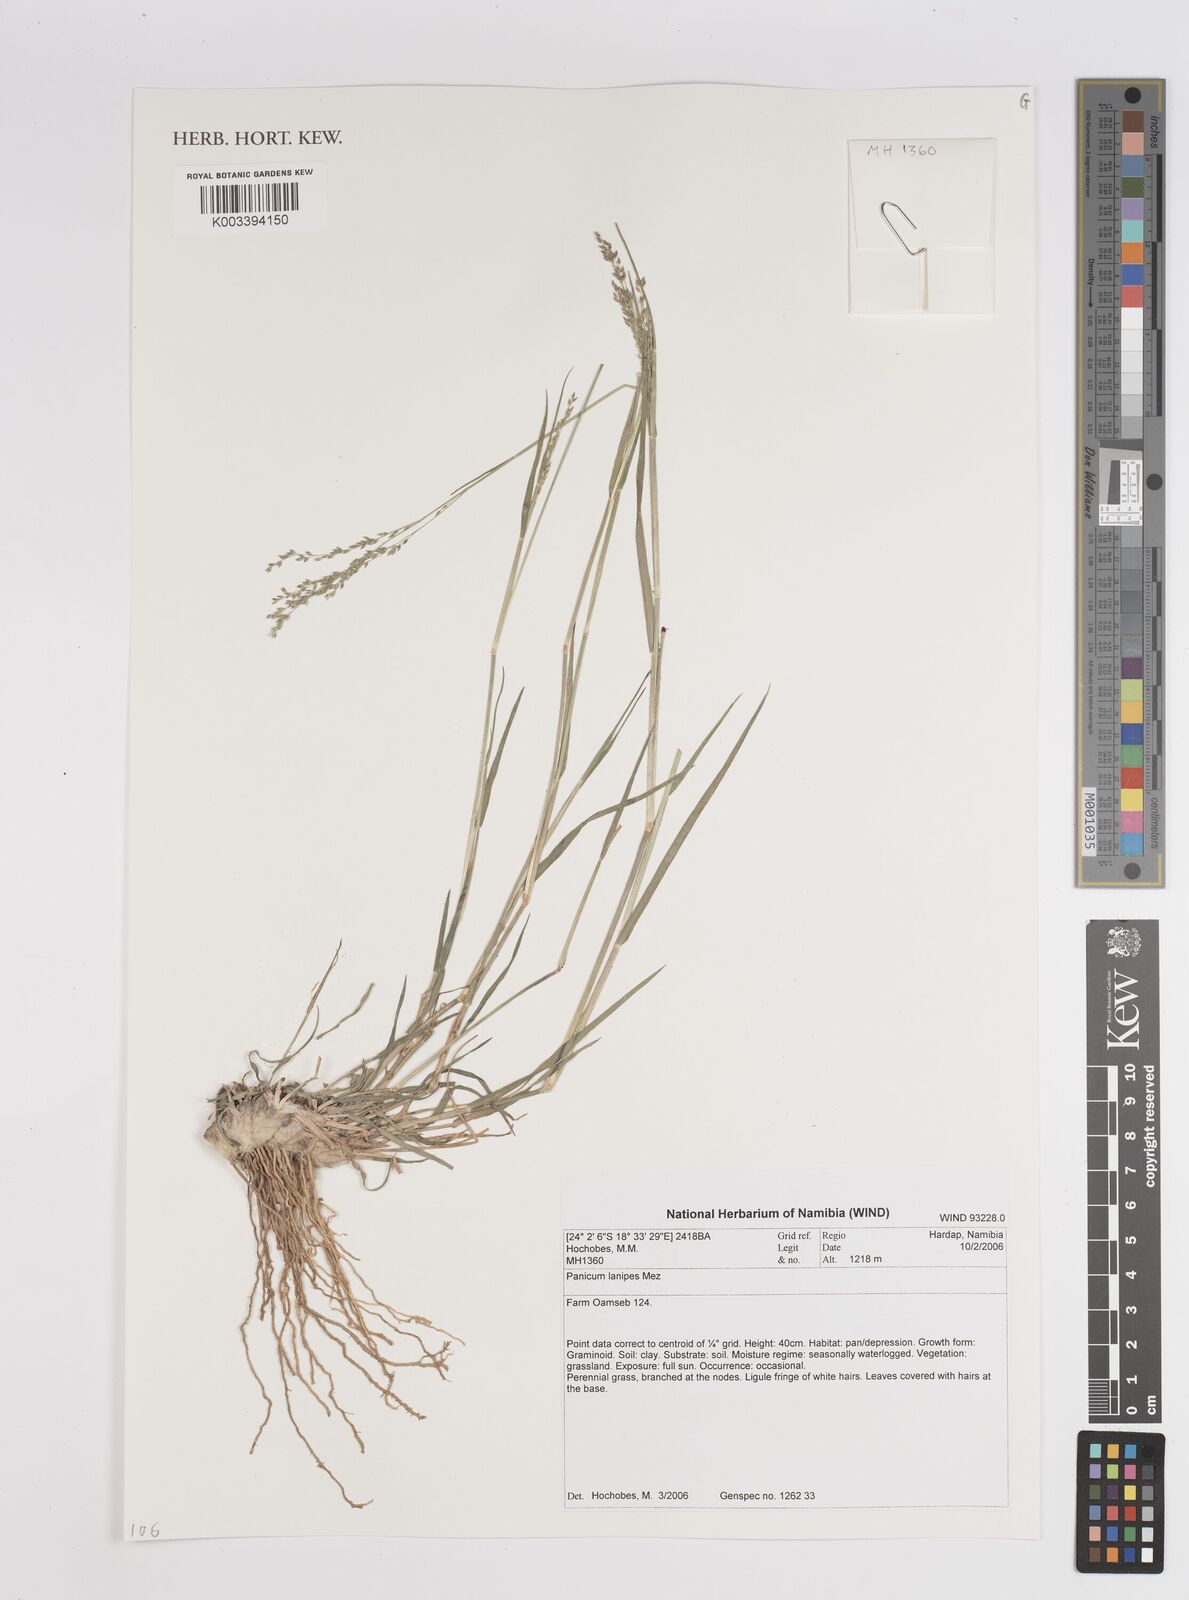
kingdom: Plantae
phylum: Tracheophyta
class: Liliopsida
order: Poales
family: Poaceae
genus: Panicum
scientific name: Panicum lanipes
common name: Wolvoet panicum
